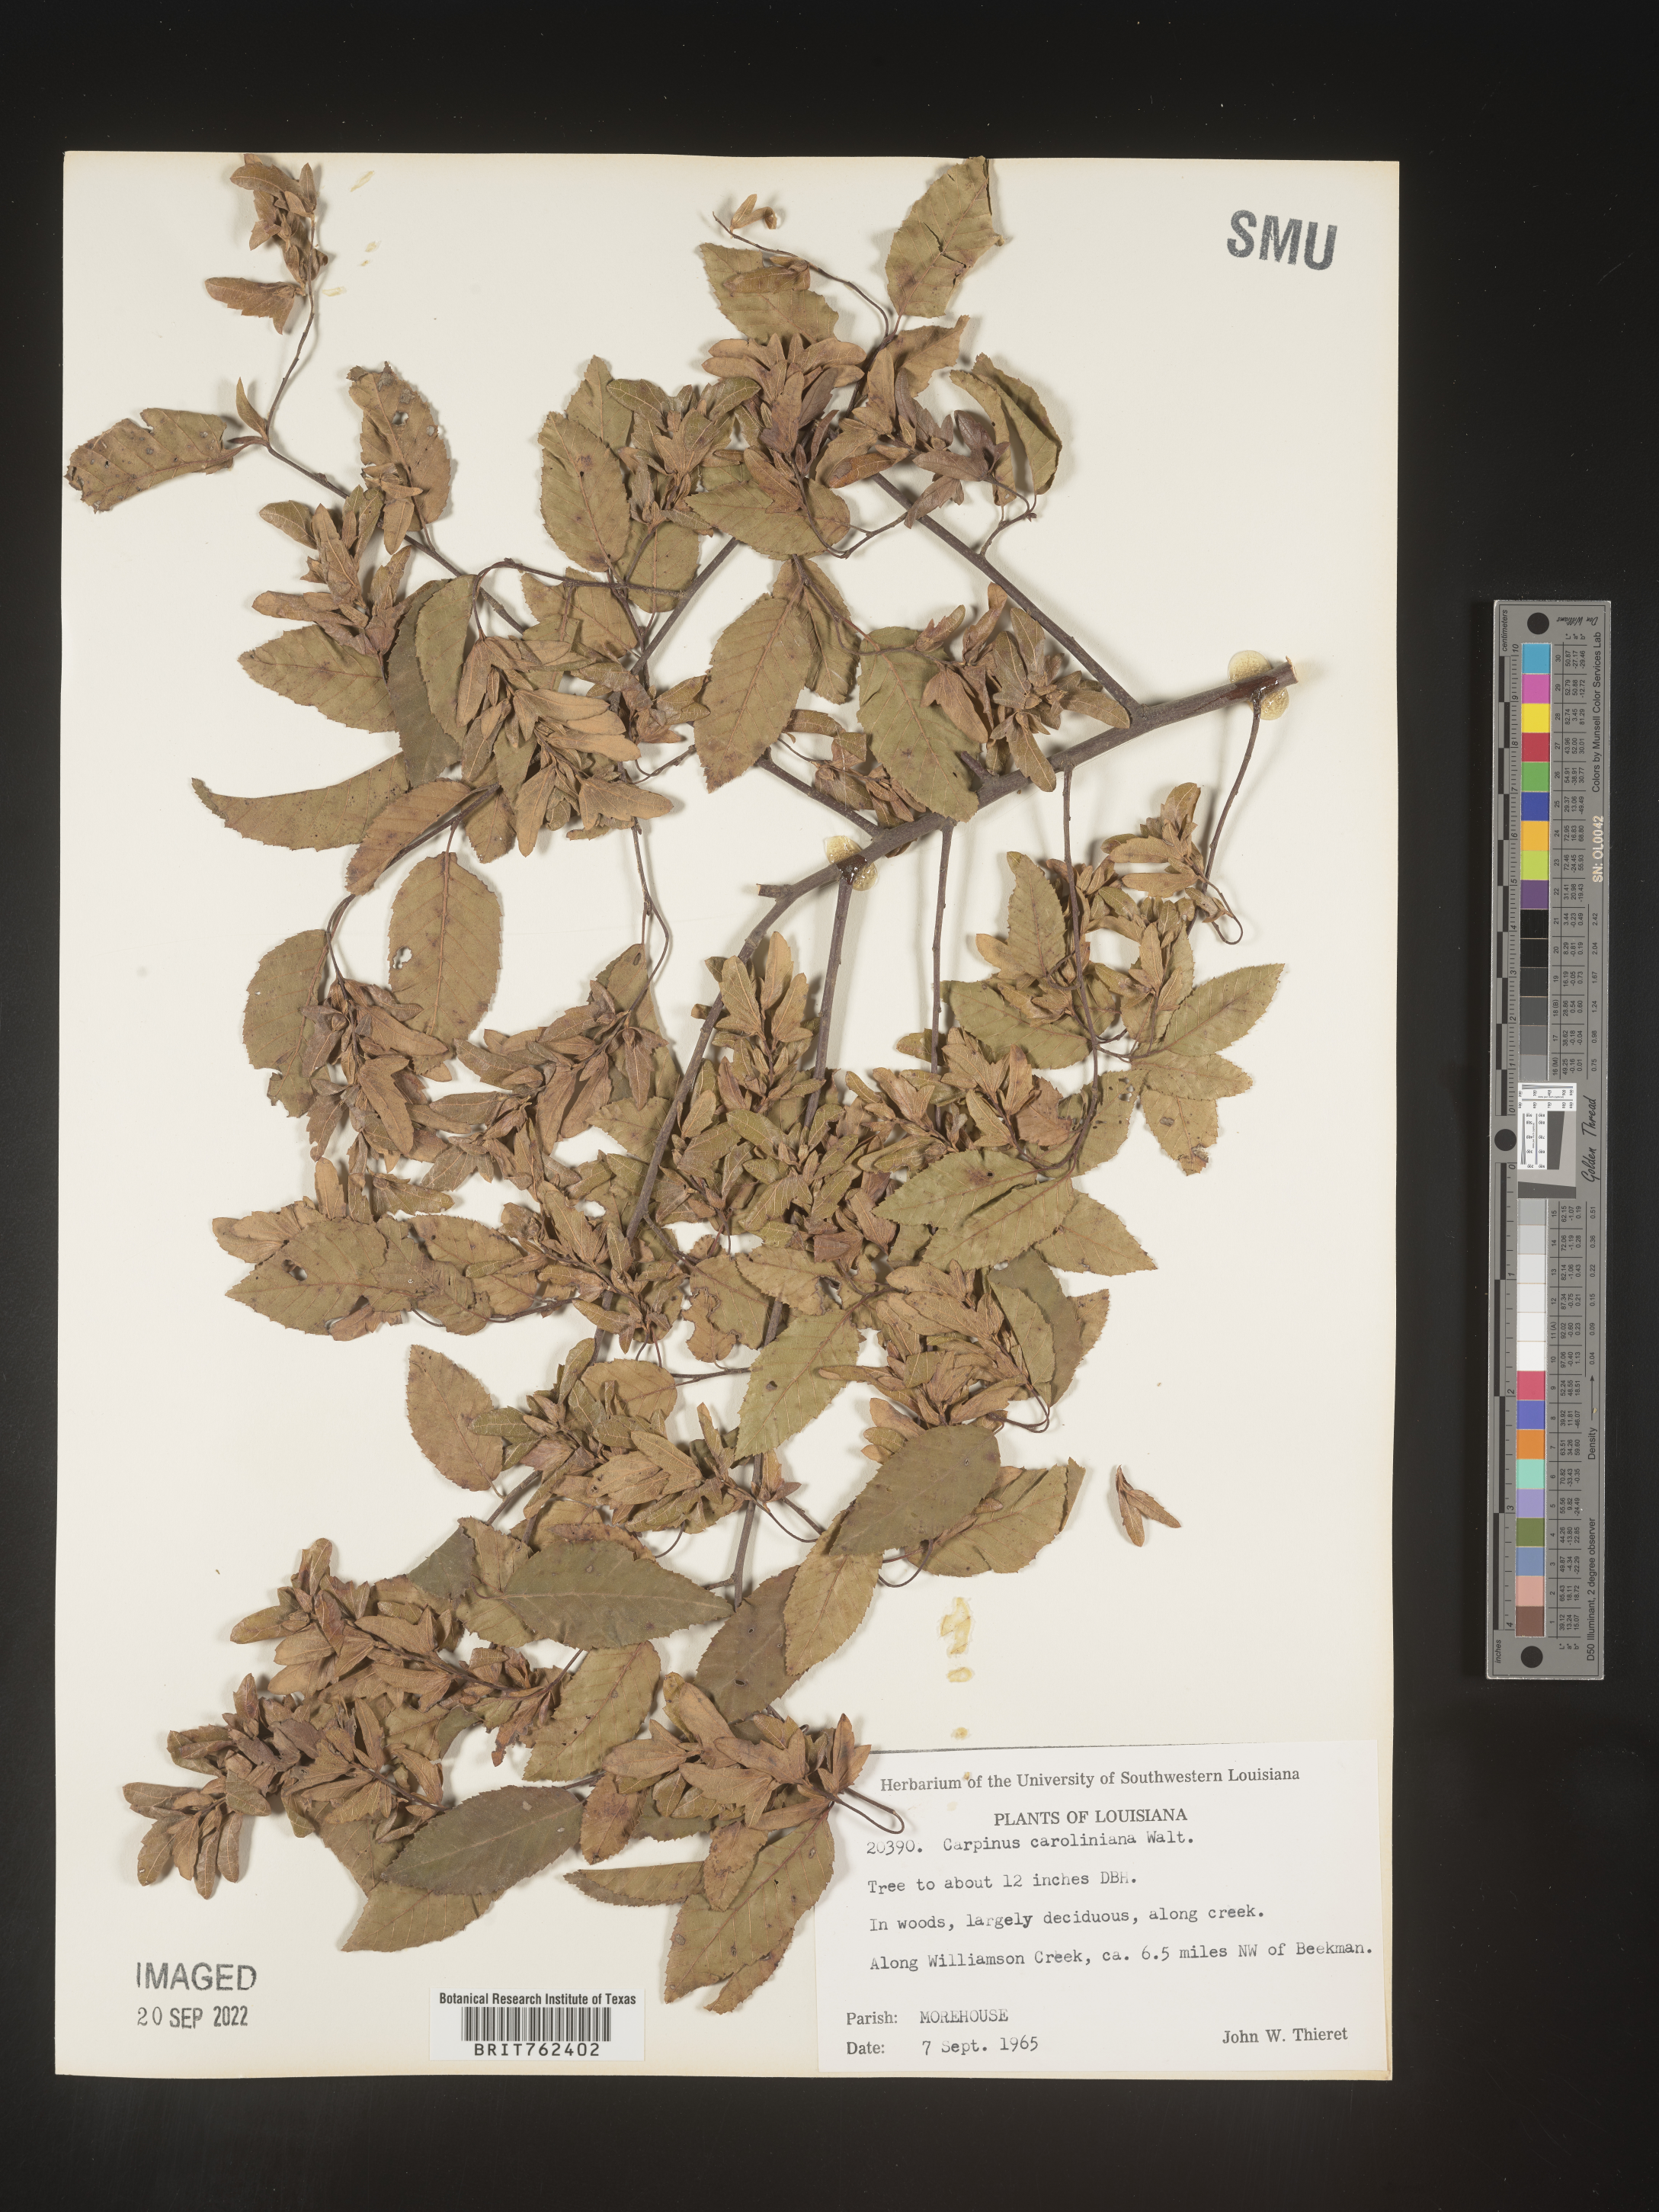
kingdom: Plantae
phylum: Tracheophyta
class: Magnoliopsida
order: Fagales
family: Betulaceae
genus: Carpinus
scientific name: Carpinus caroliniana
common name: American hornbeam
